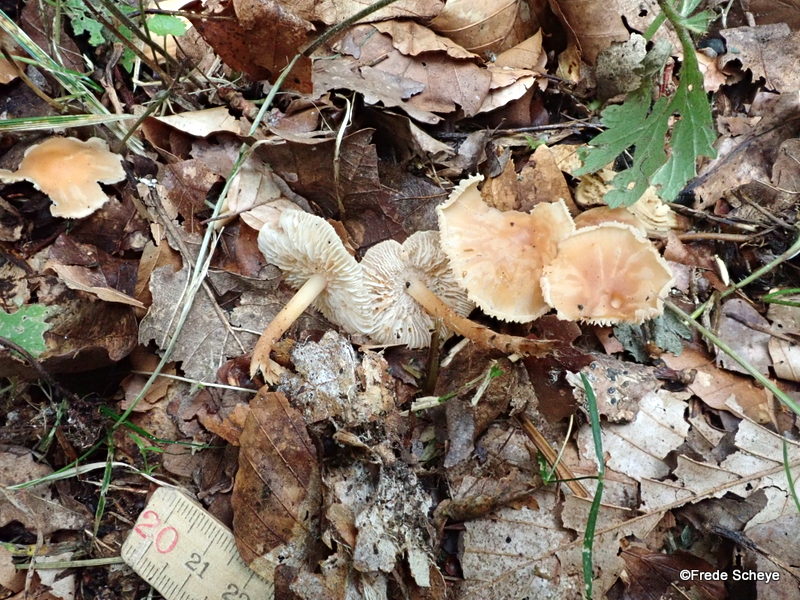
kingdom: Fungi
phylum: Basidiomycota
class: Agaricomycetes
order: Agaricales
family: Omphalotaceae
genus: Gymnopus
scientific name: Gymnopus dryophilus
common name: løv-fladhat
